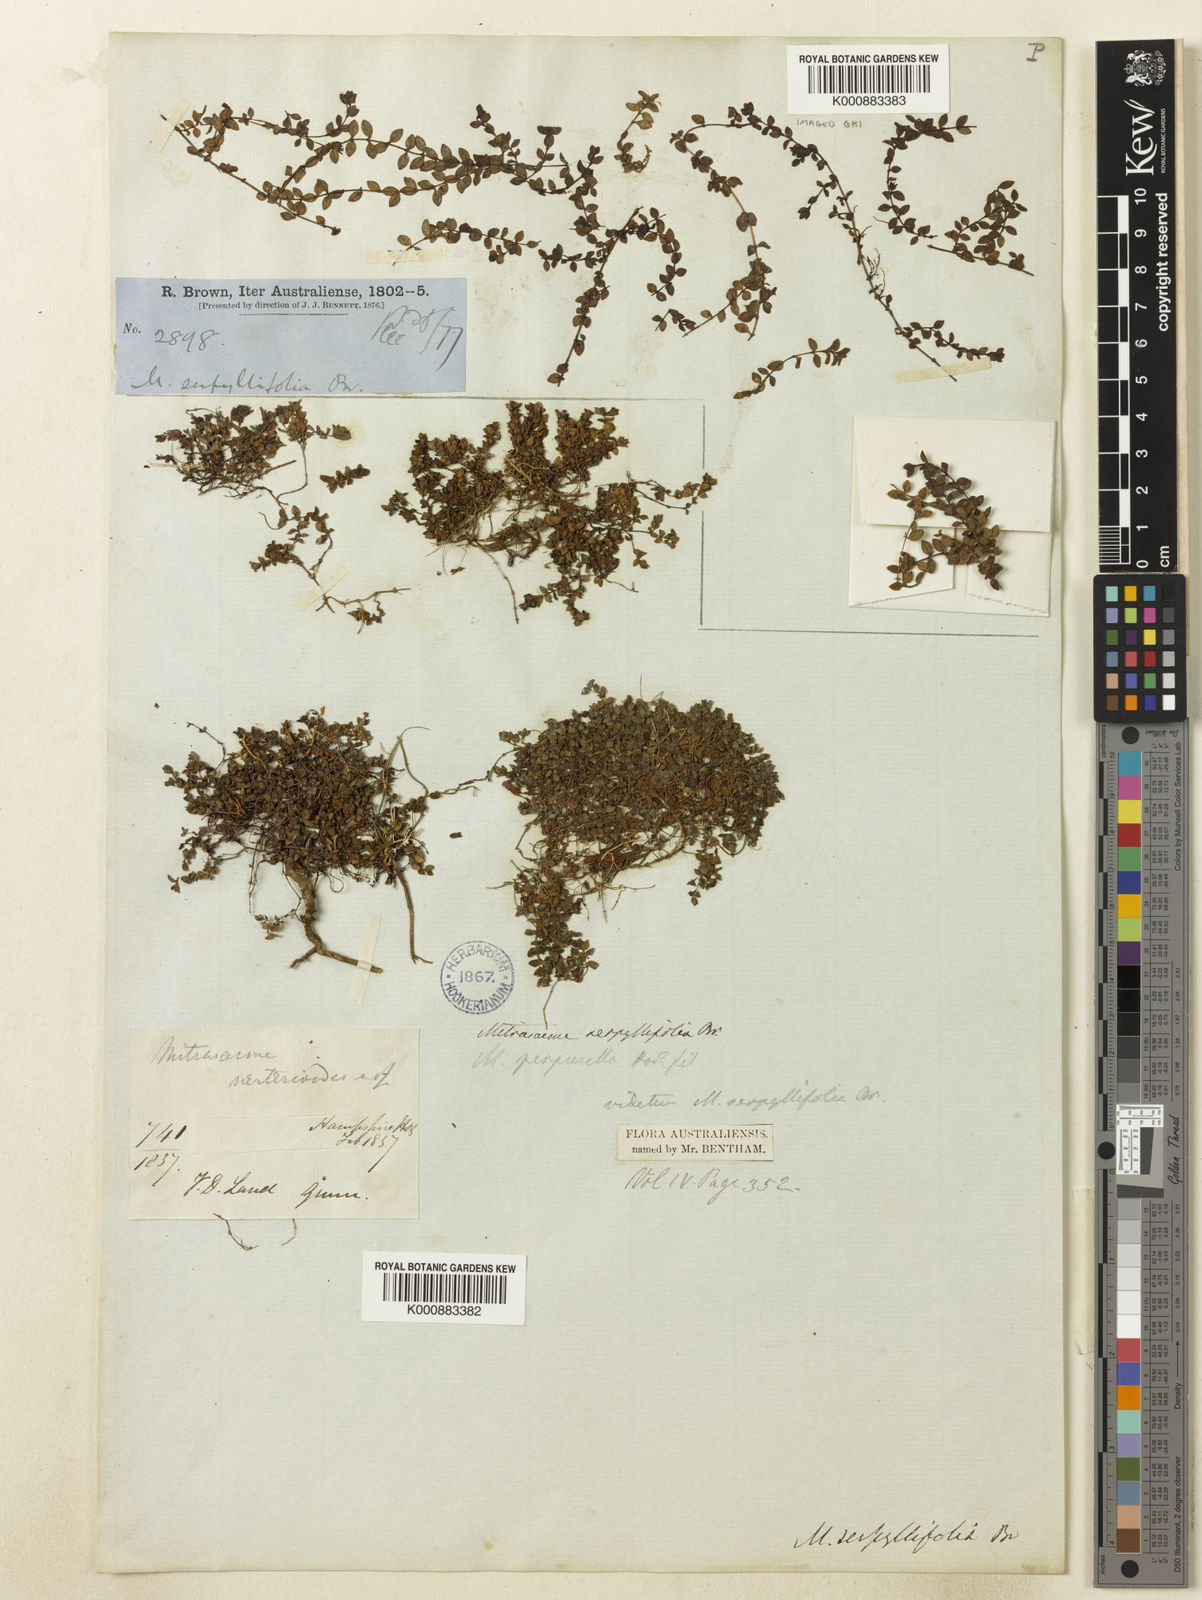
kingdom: Plantae
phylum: Tracheophyta
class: Magnoliopsida
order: Gentianales
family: Loganiaceae
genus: Mitrasacme
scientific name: Mitrasacme serpyllifolia
